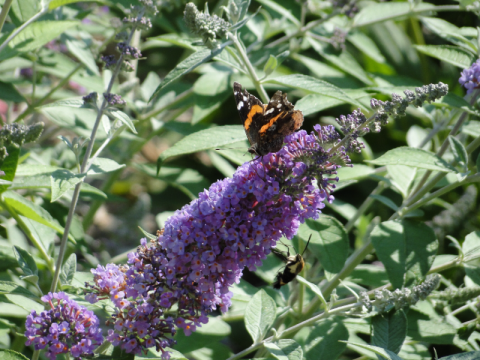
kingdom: Animalia
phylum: Arthropoda
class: Insecta
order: Lepidoptera
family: Nymphalidae
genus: Vanessa
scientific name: Vanessa atalanta
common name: Red Admiral
